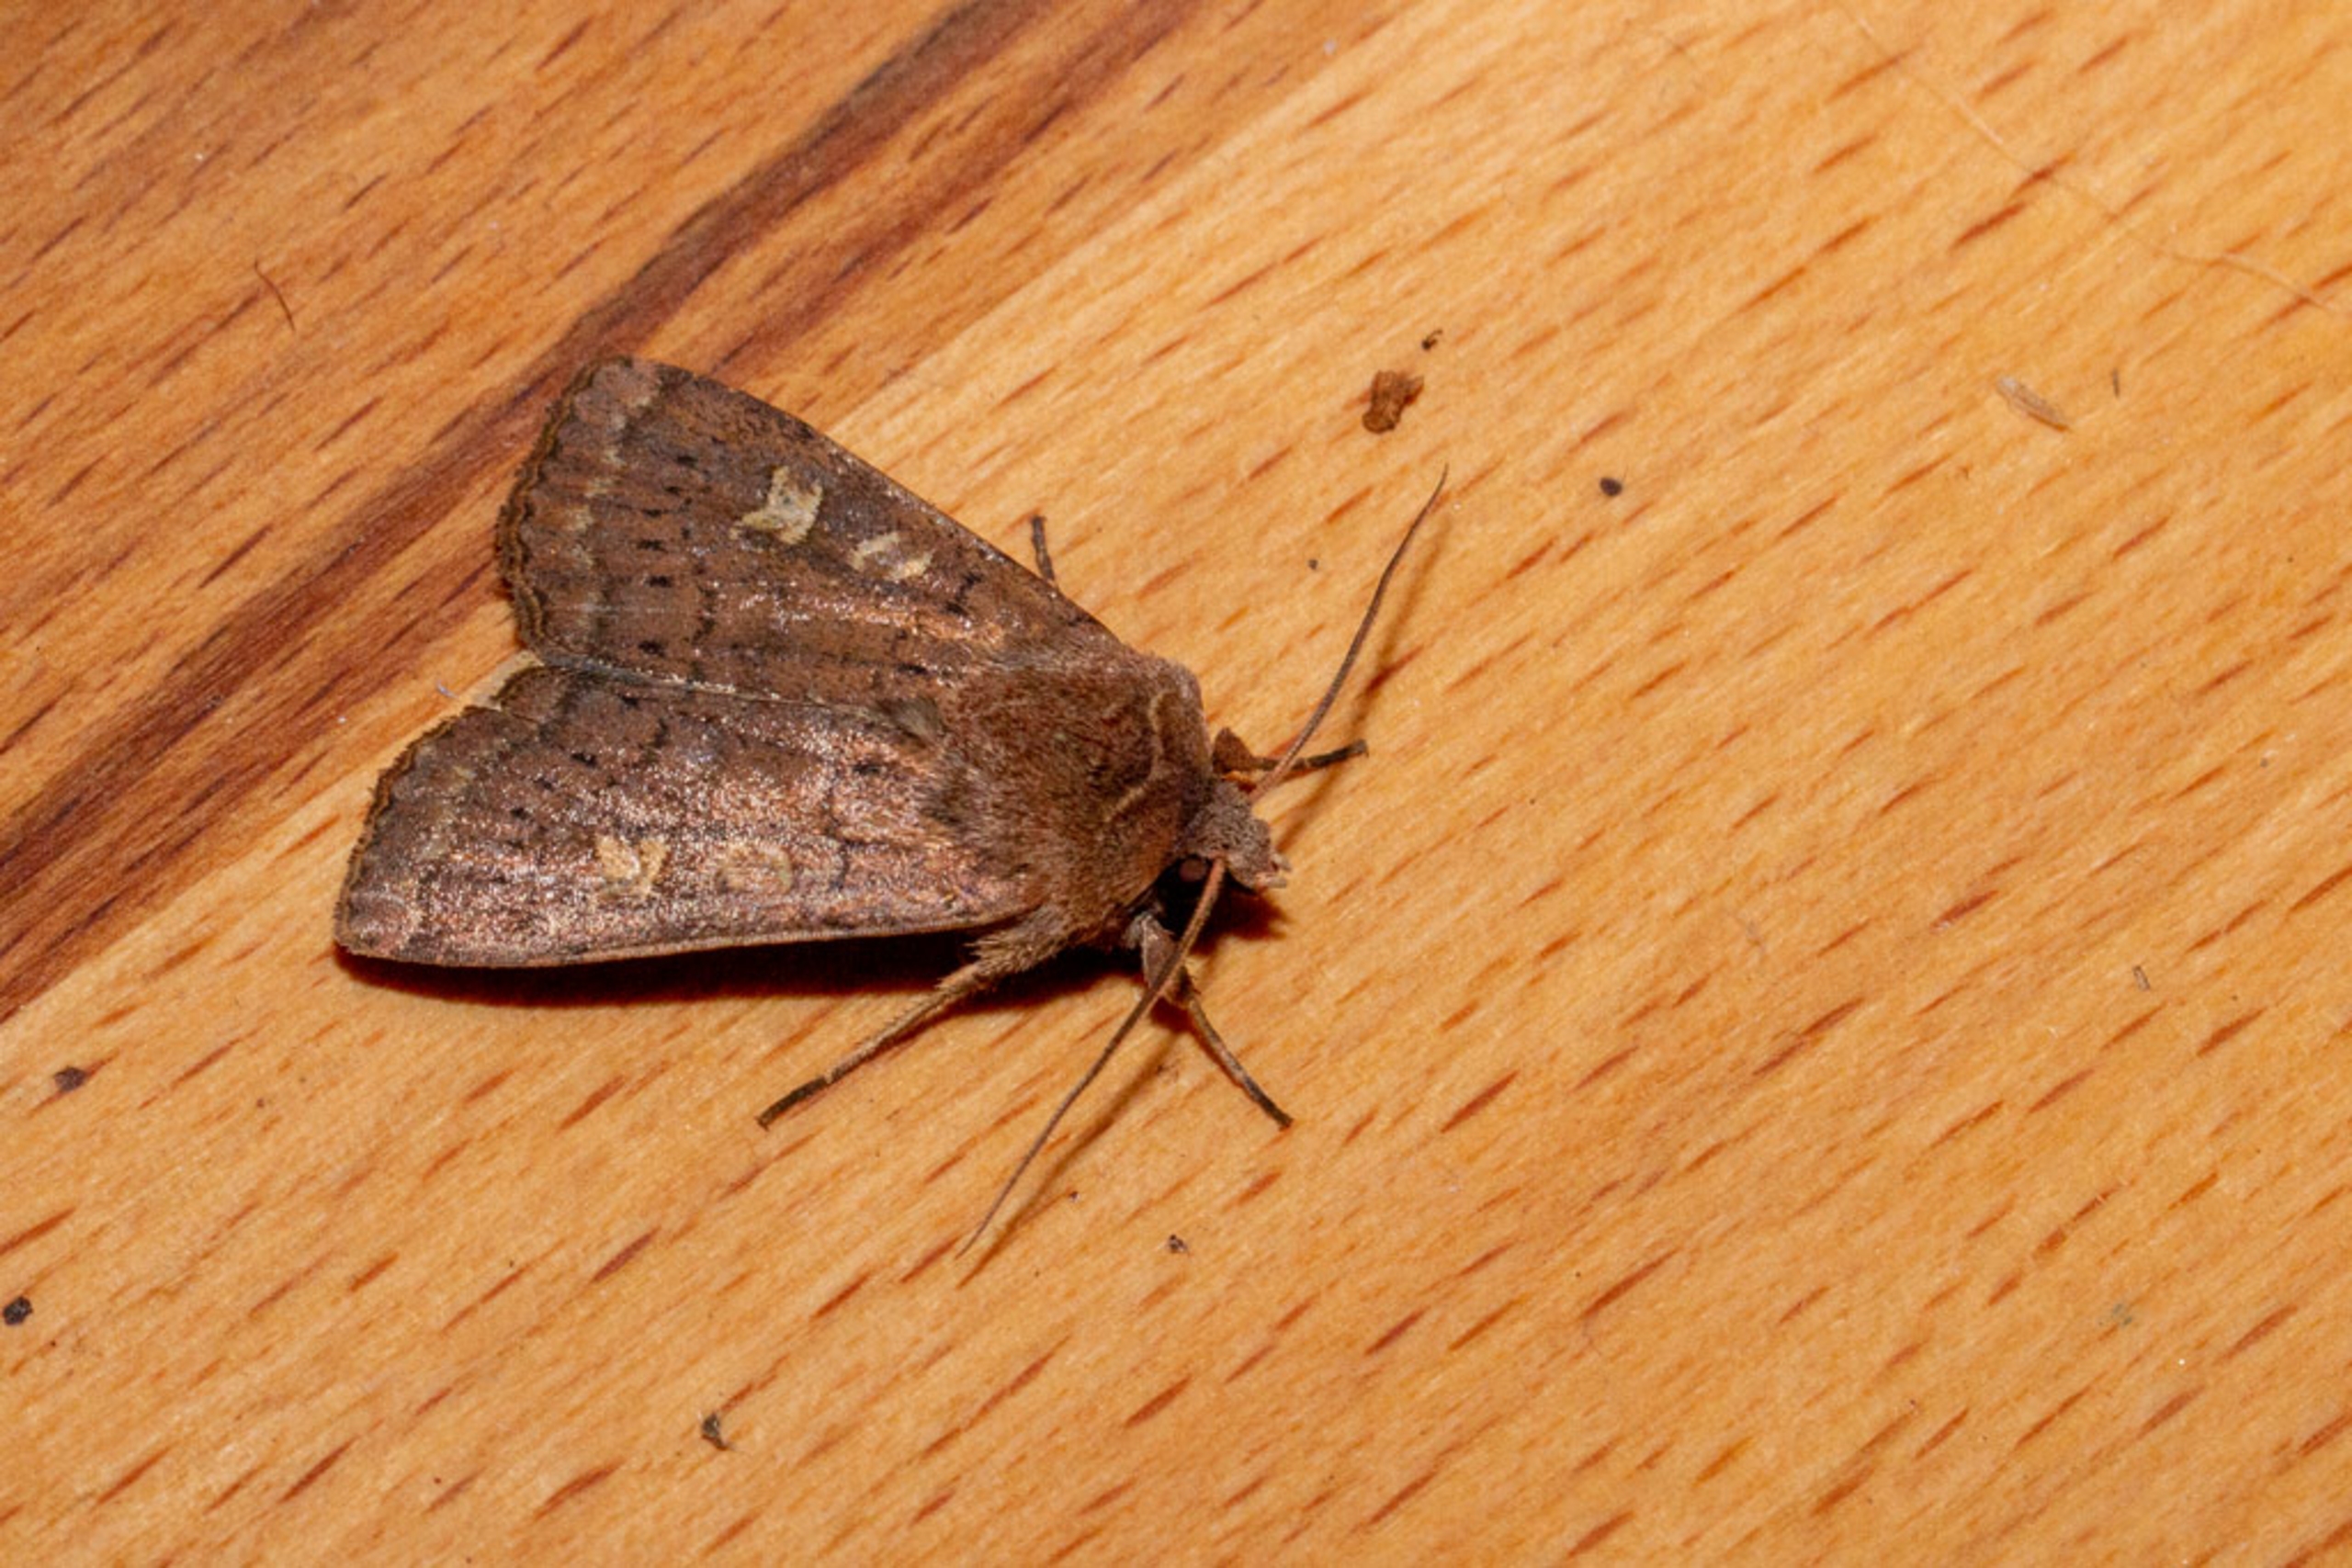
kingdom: Animalia
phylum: Arthropoda
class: Insecta
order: Lepidoptera
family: Noctuidae
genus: Xestia
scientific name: Xestia xanthographa
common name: Gulmærket glansugle
